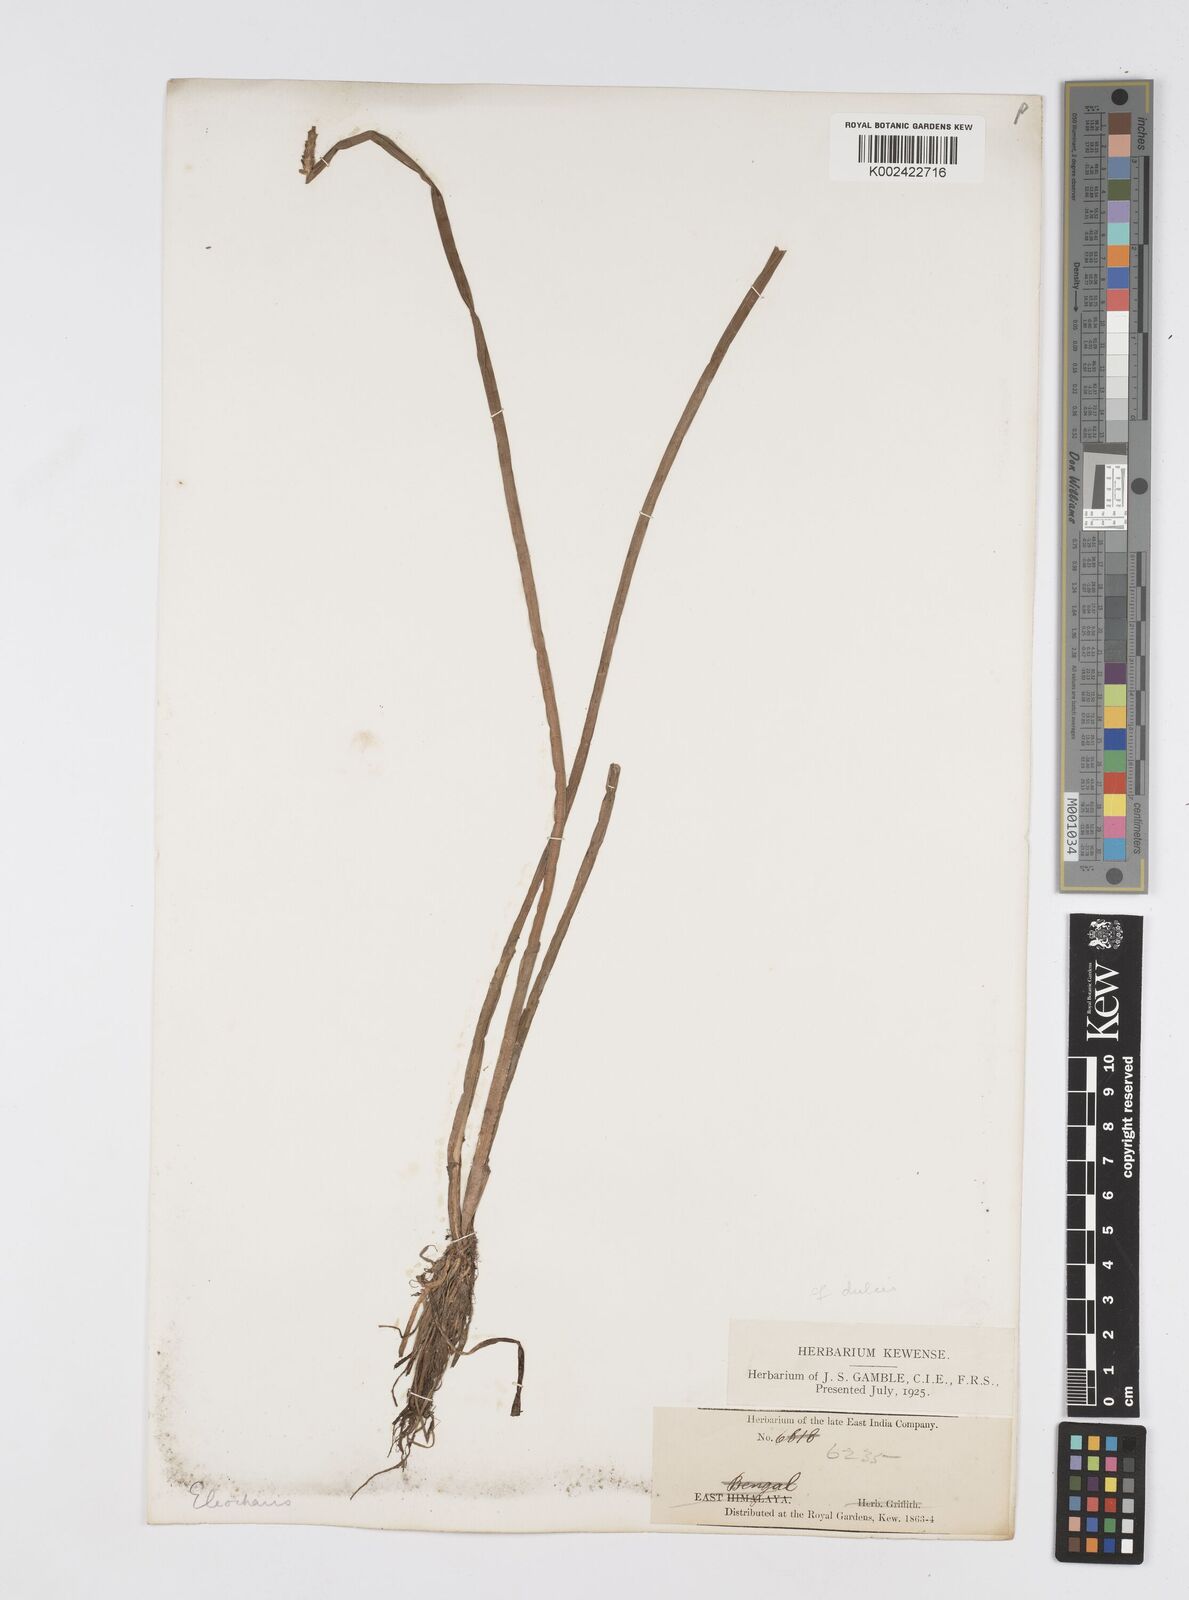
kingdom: Plantae
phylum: Tracheophyta
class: Liliopsida
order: Poales
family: Cyperaceae
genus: Eleocharis
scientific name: Eleocharis
